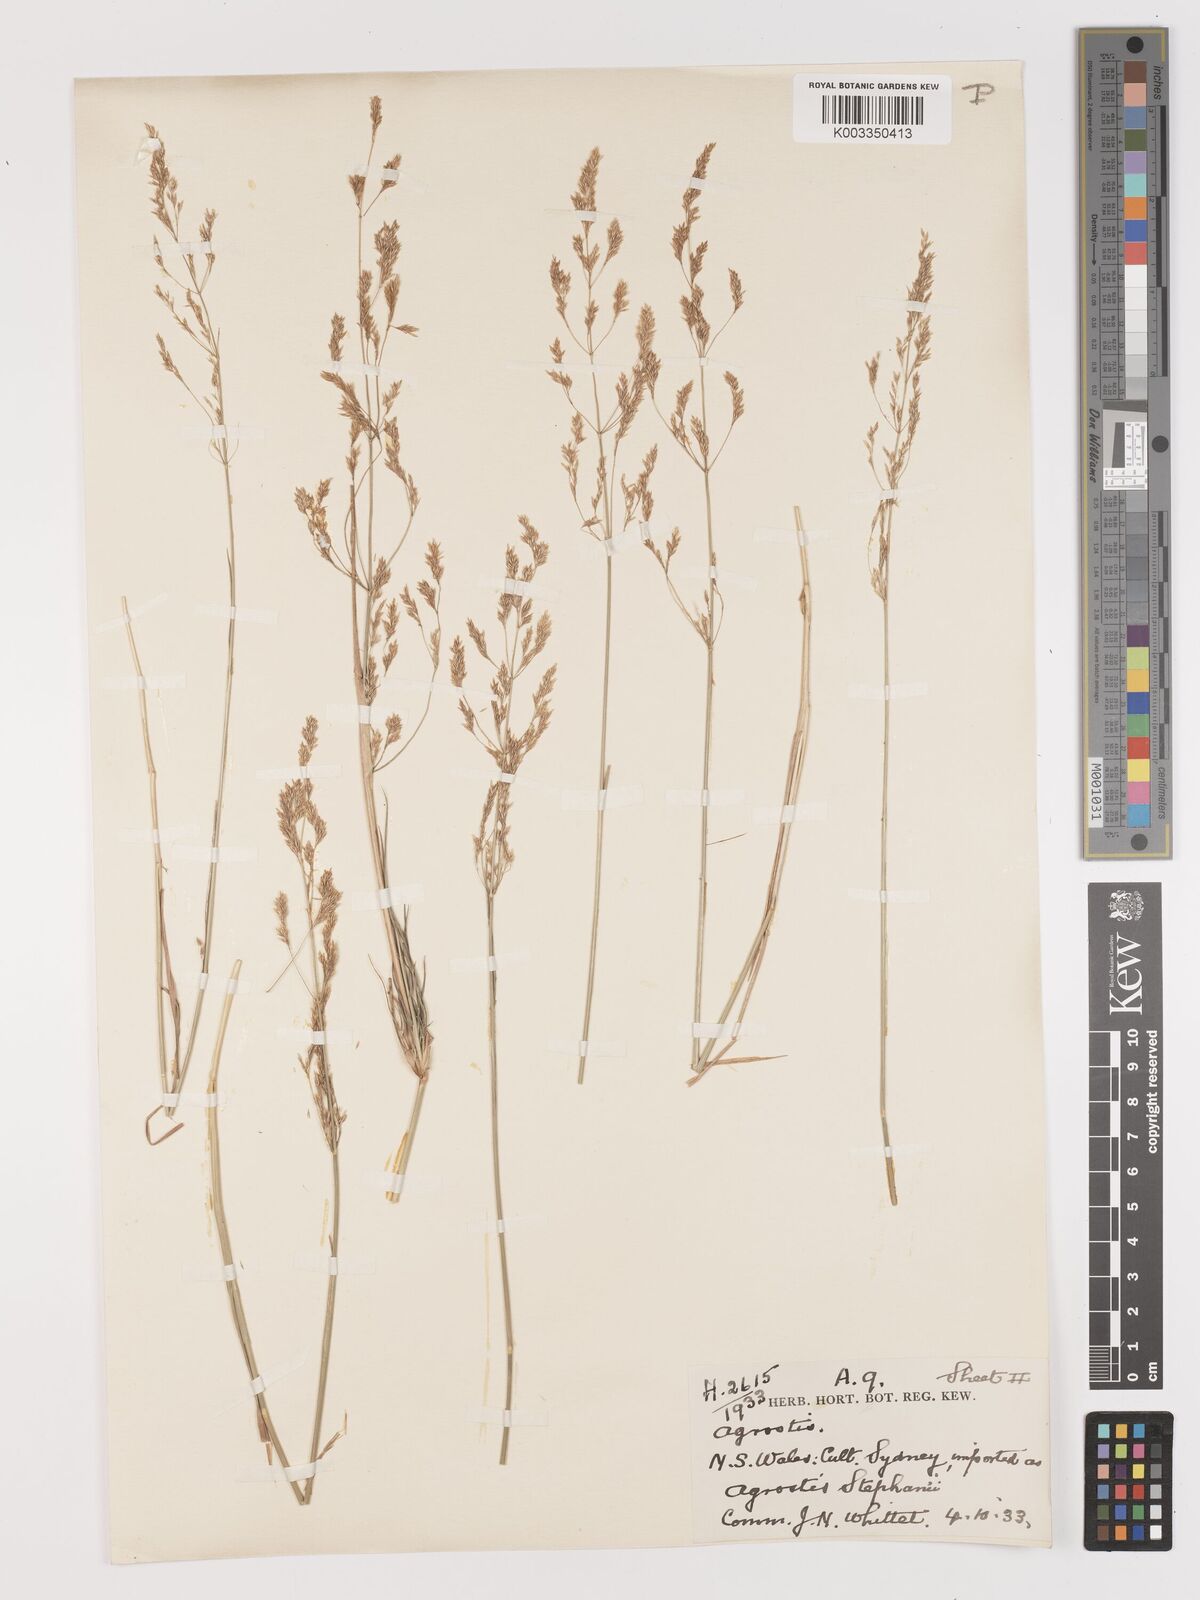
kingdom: Plantae
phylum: Tracheophyta
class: Liliopsida
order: Poales
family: Poaceae
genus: Agrostis
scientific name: Agrostis capillaris
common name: Colonial bentgrass
